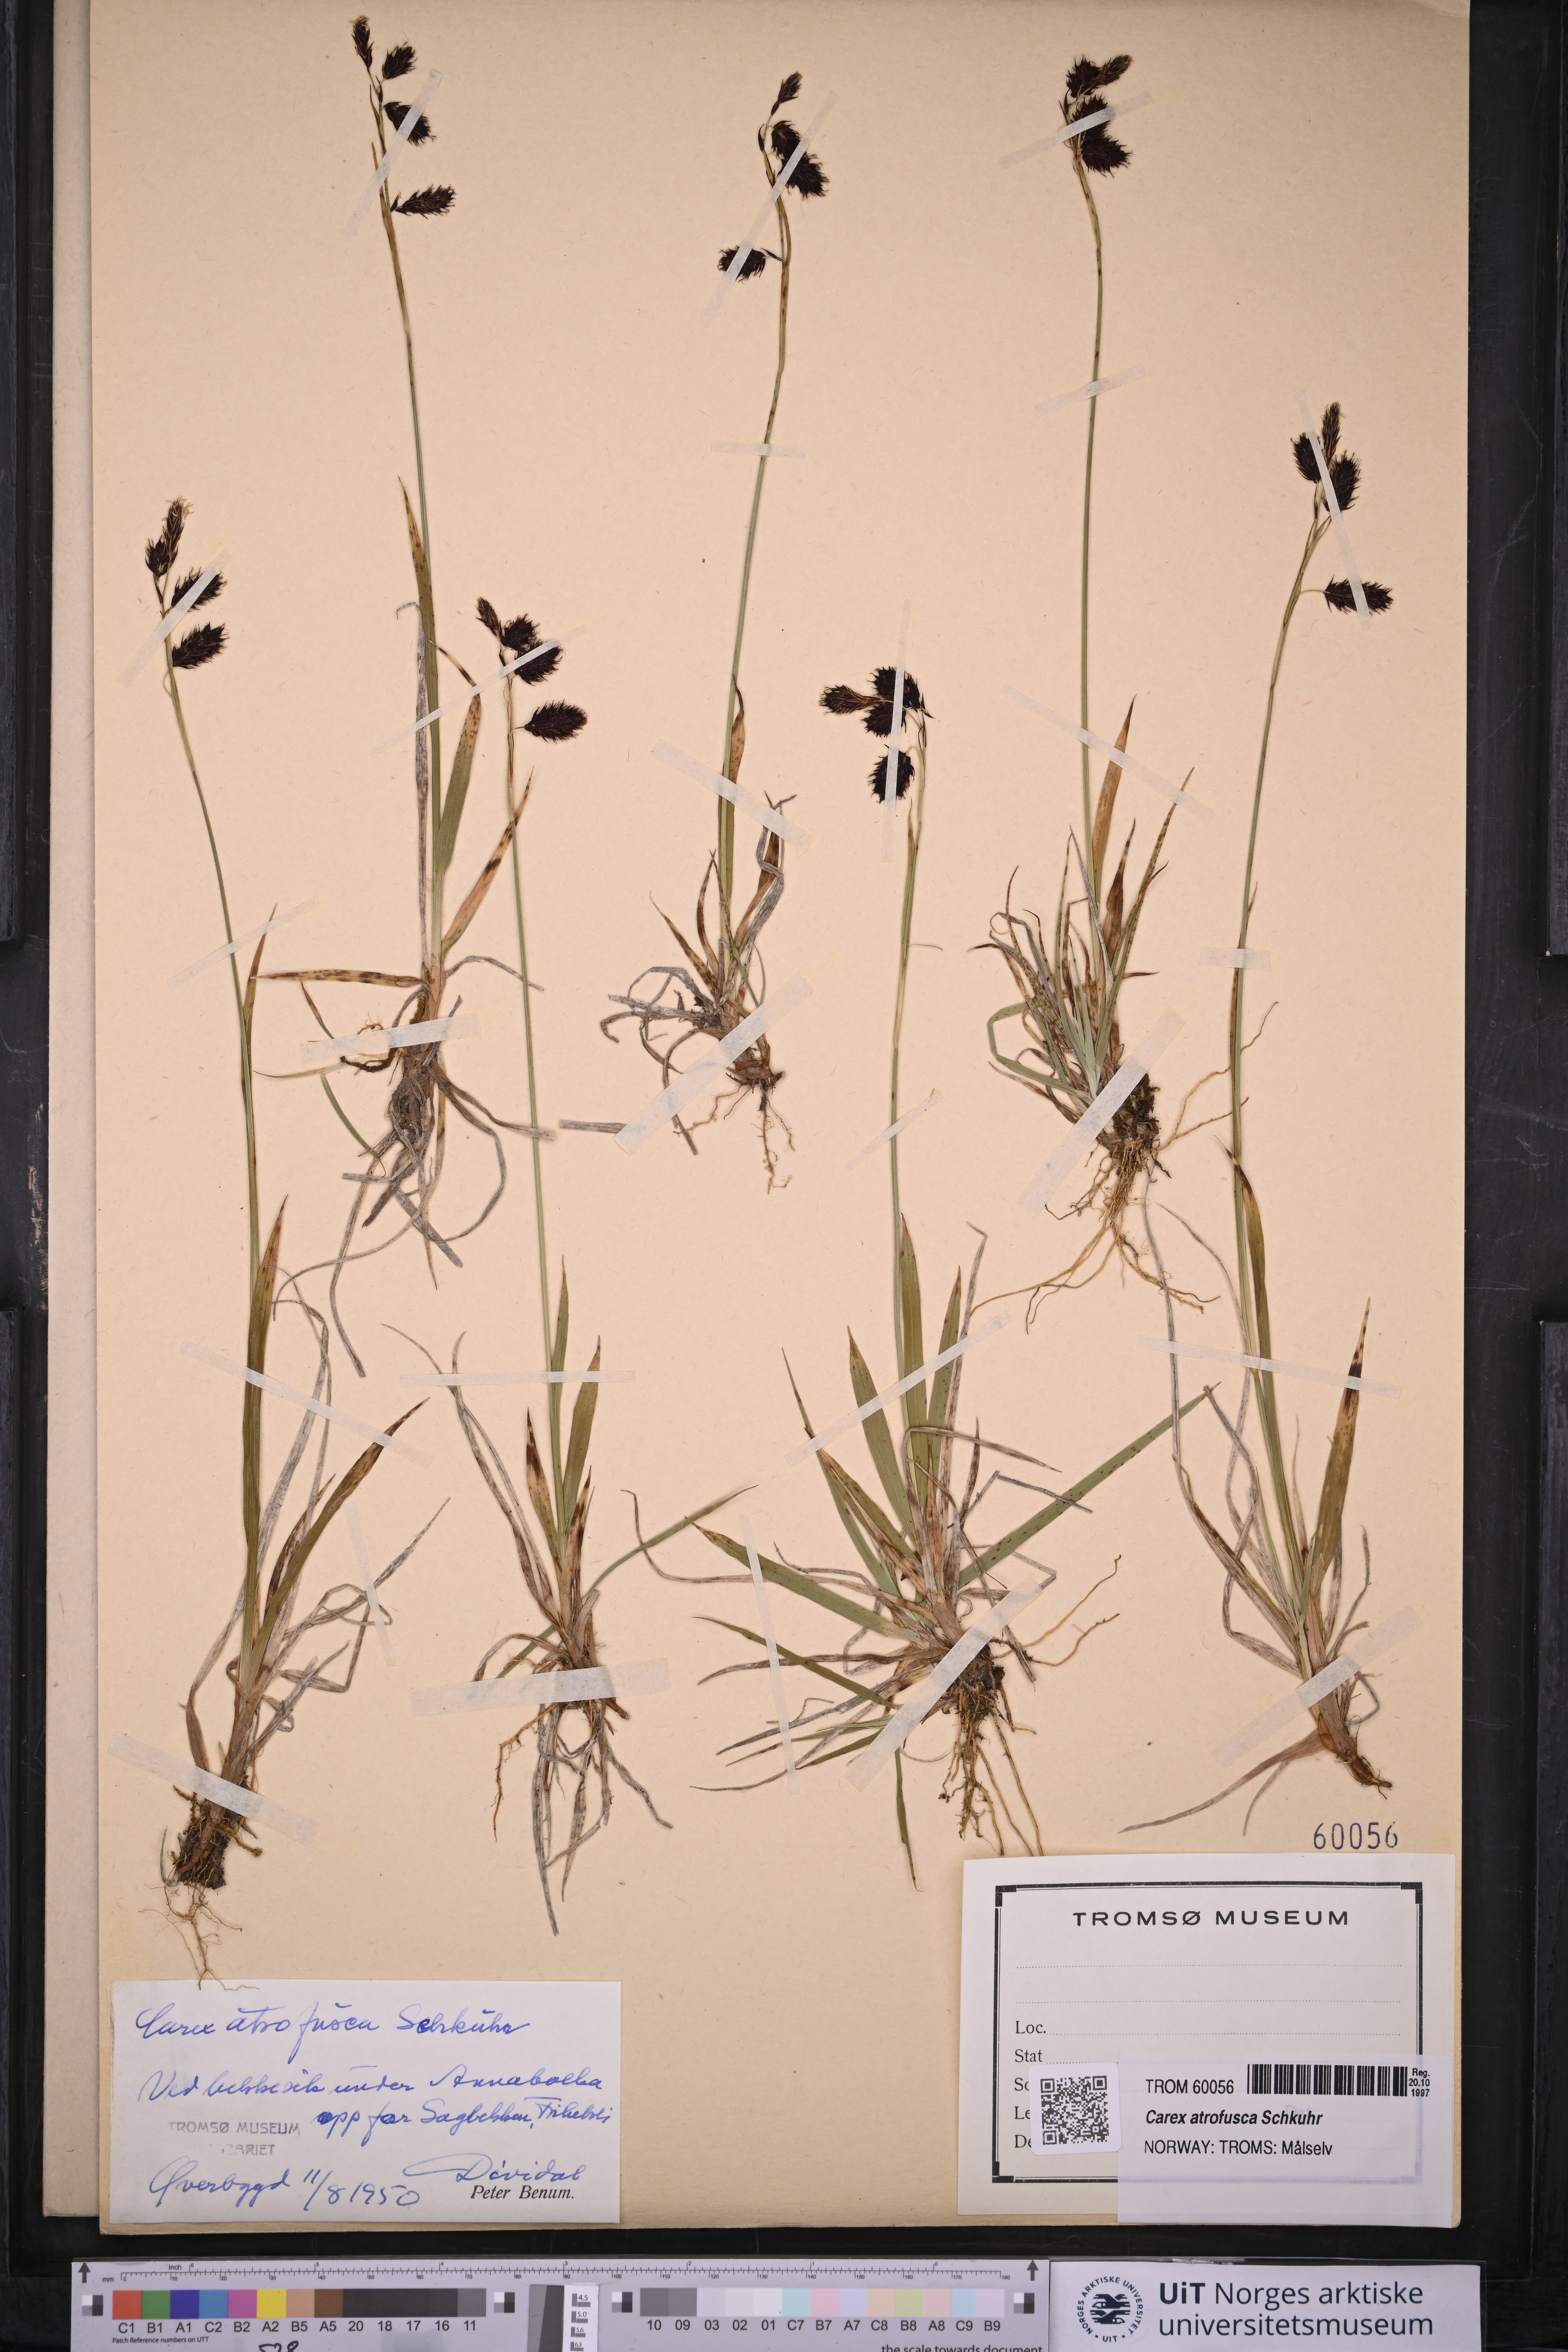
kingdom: Plantae
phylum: Tracheophyta
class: Liliopsida
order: Poales
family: Cyperaceae
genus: Carex
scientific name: Carex atrofusca
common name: Scorched alpine-sedge
